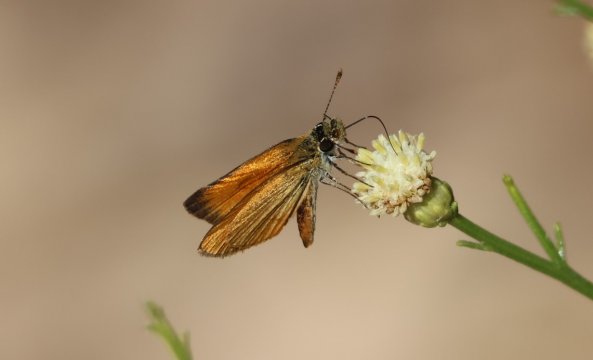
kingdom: Animalia
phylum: Arthropoda
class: Insecta
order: Lepidoptera
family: Hesperiidae
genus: Ancyloxypha
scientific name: Ancyloxypha arene
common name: Tropical Least Skipper
